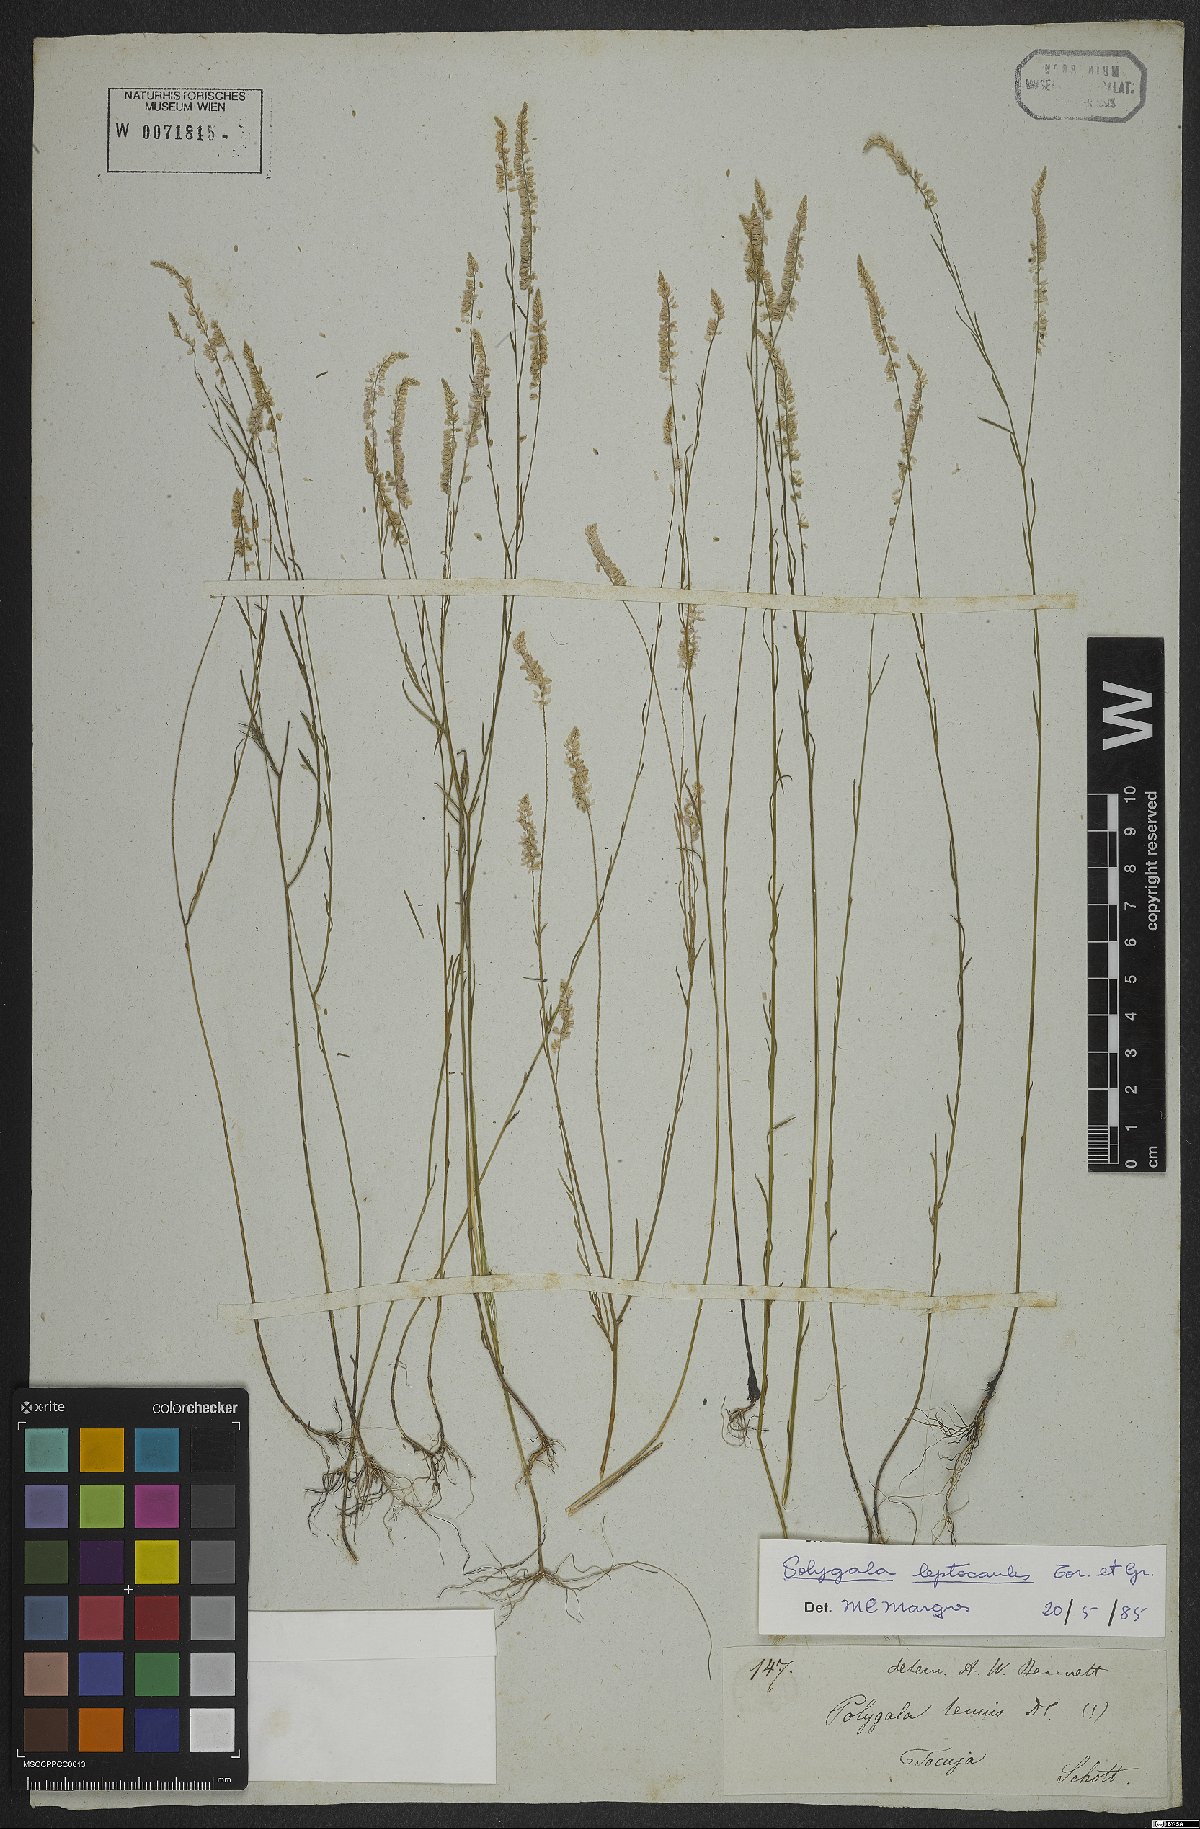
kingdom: Plantae
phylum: Tracheophyta
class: Magnoliopsida
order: Fabales
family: Polygalaceae
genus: Polygala
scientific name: Polygala tenella
